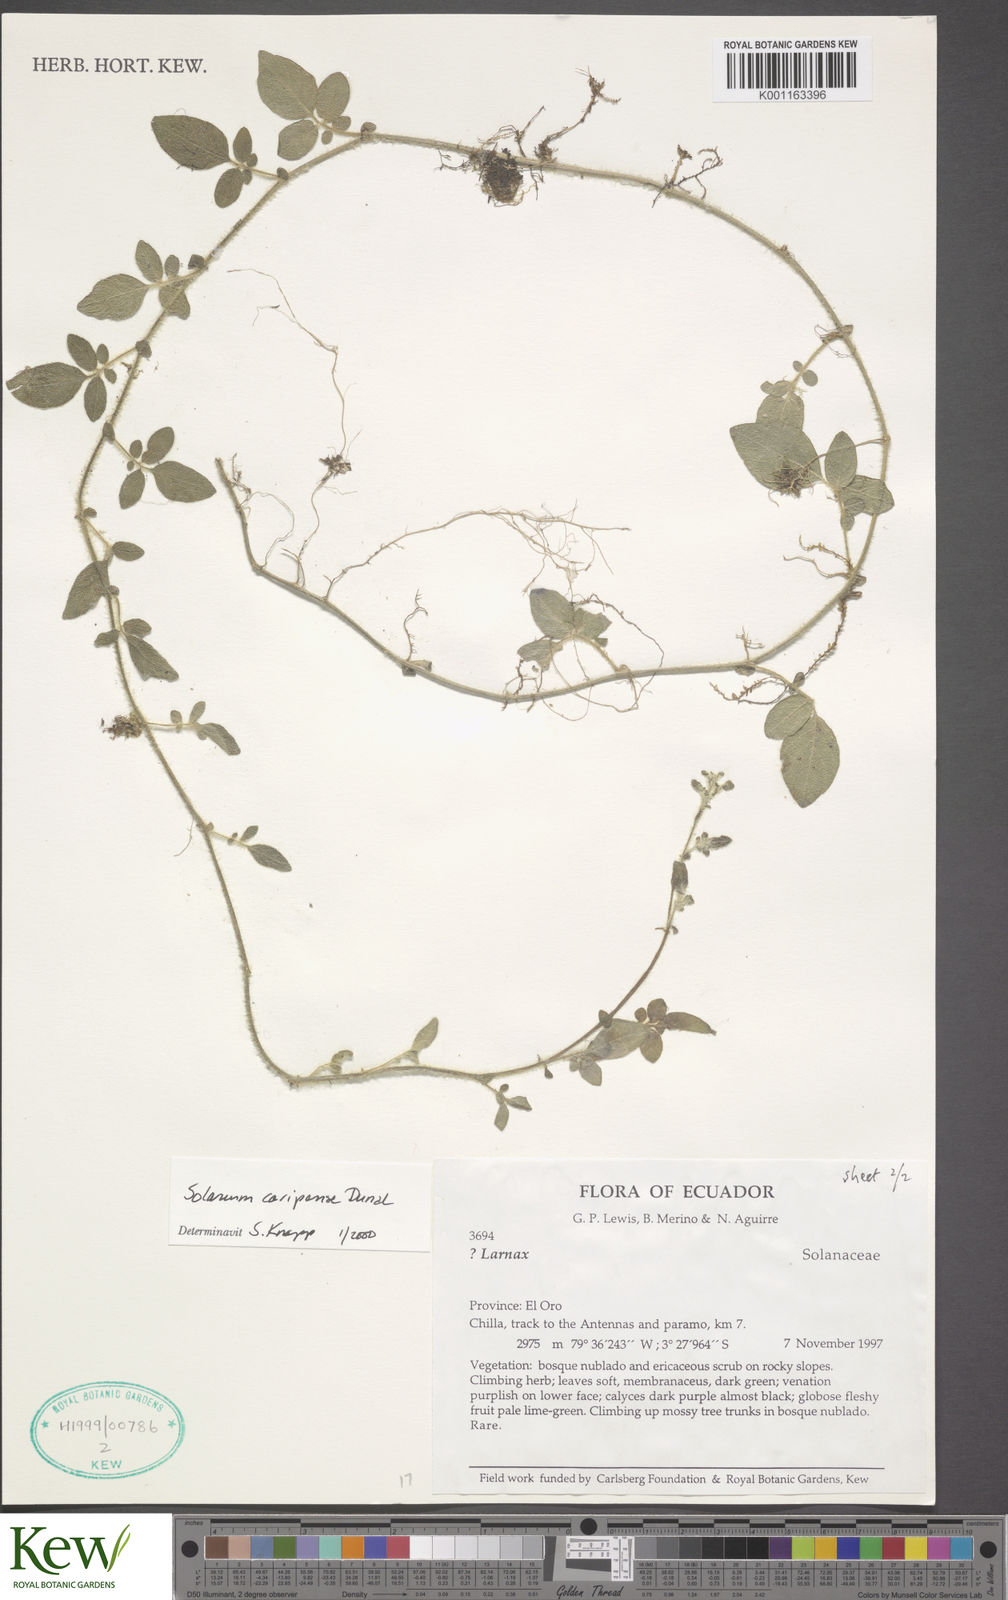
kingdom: Plantae
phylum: Tracheophyta
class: Magnoliopsida
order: Solanales
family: Solanaceae
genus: Solanum
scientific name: Solanum caripense
